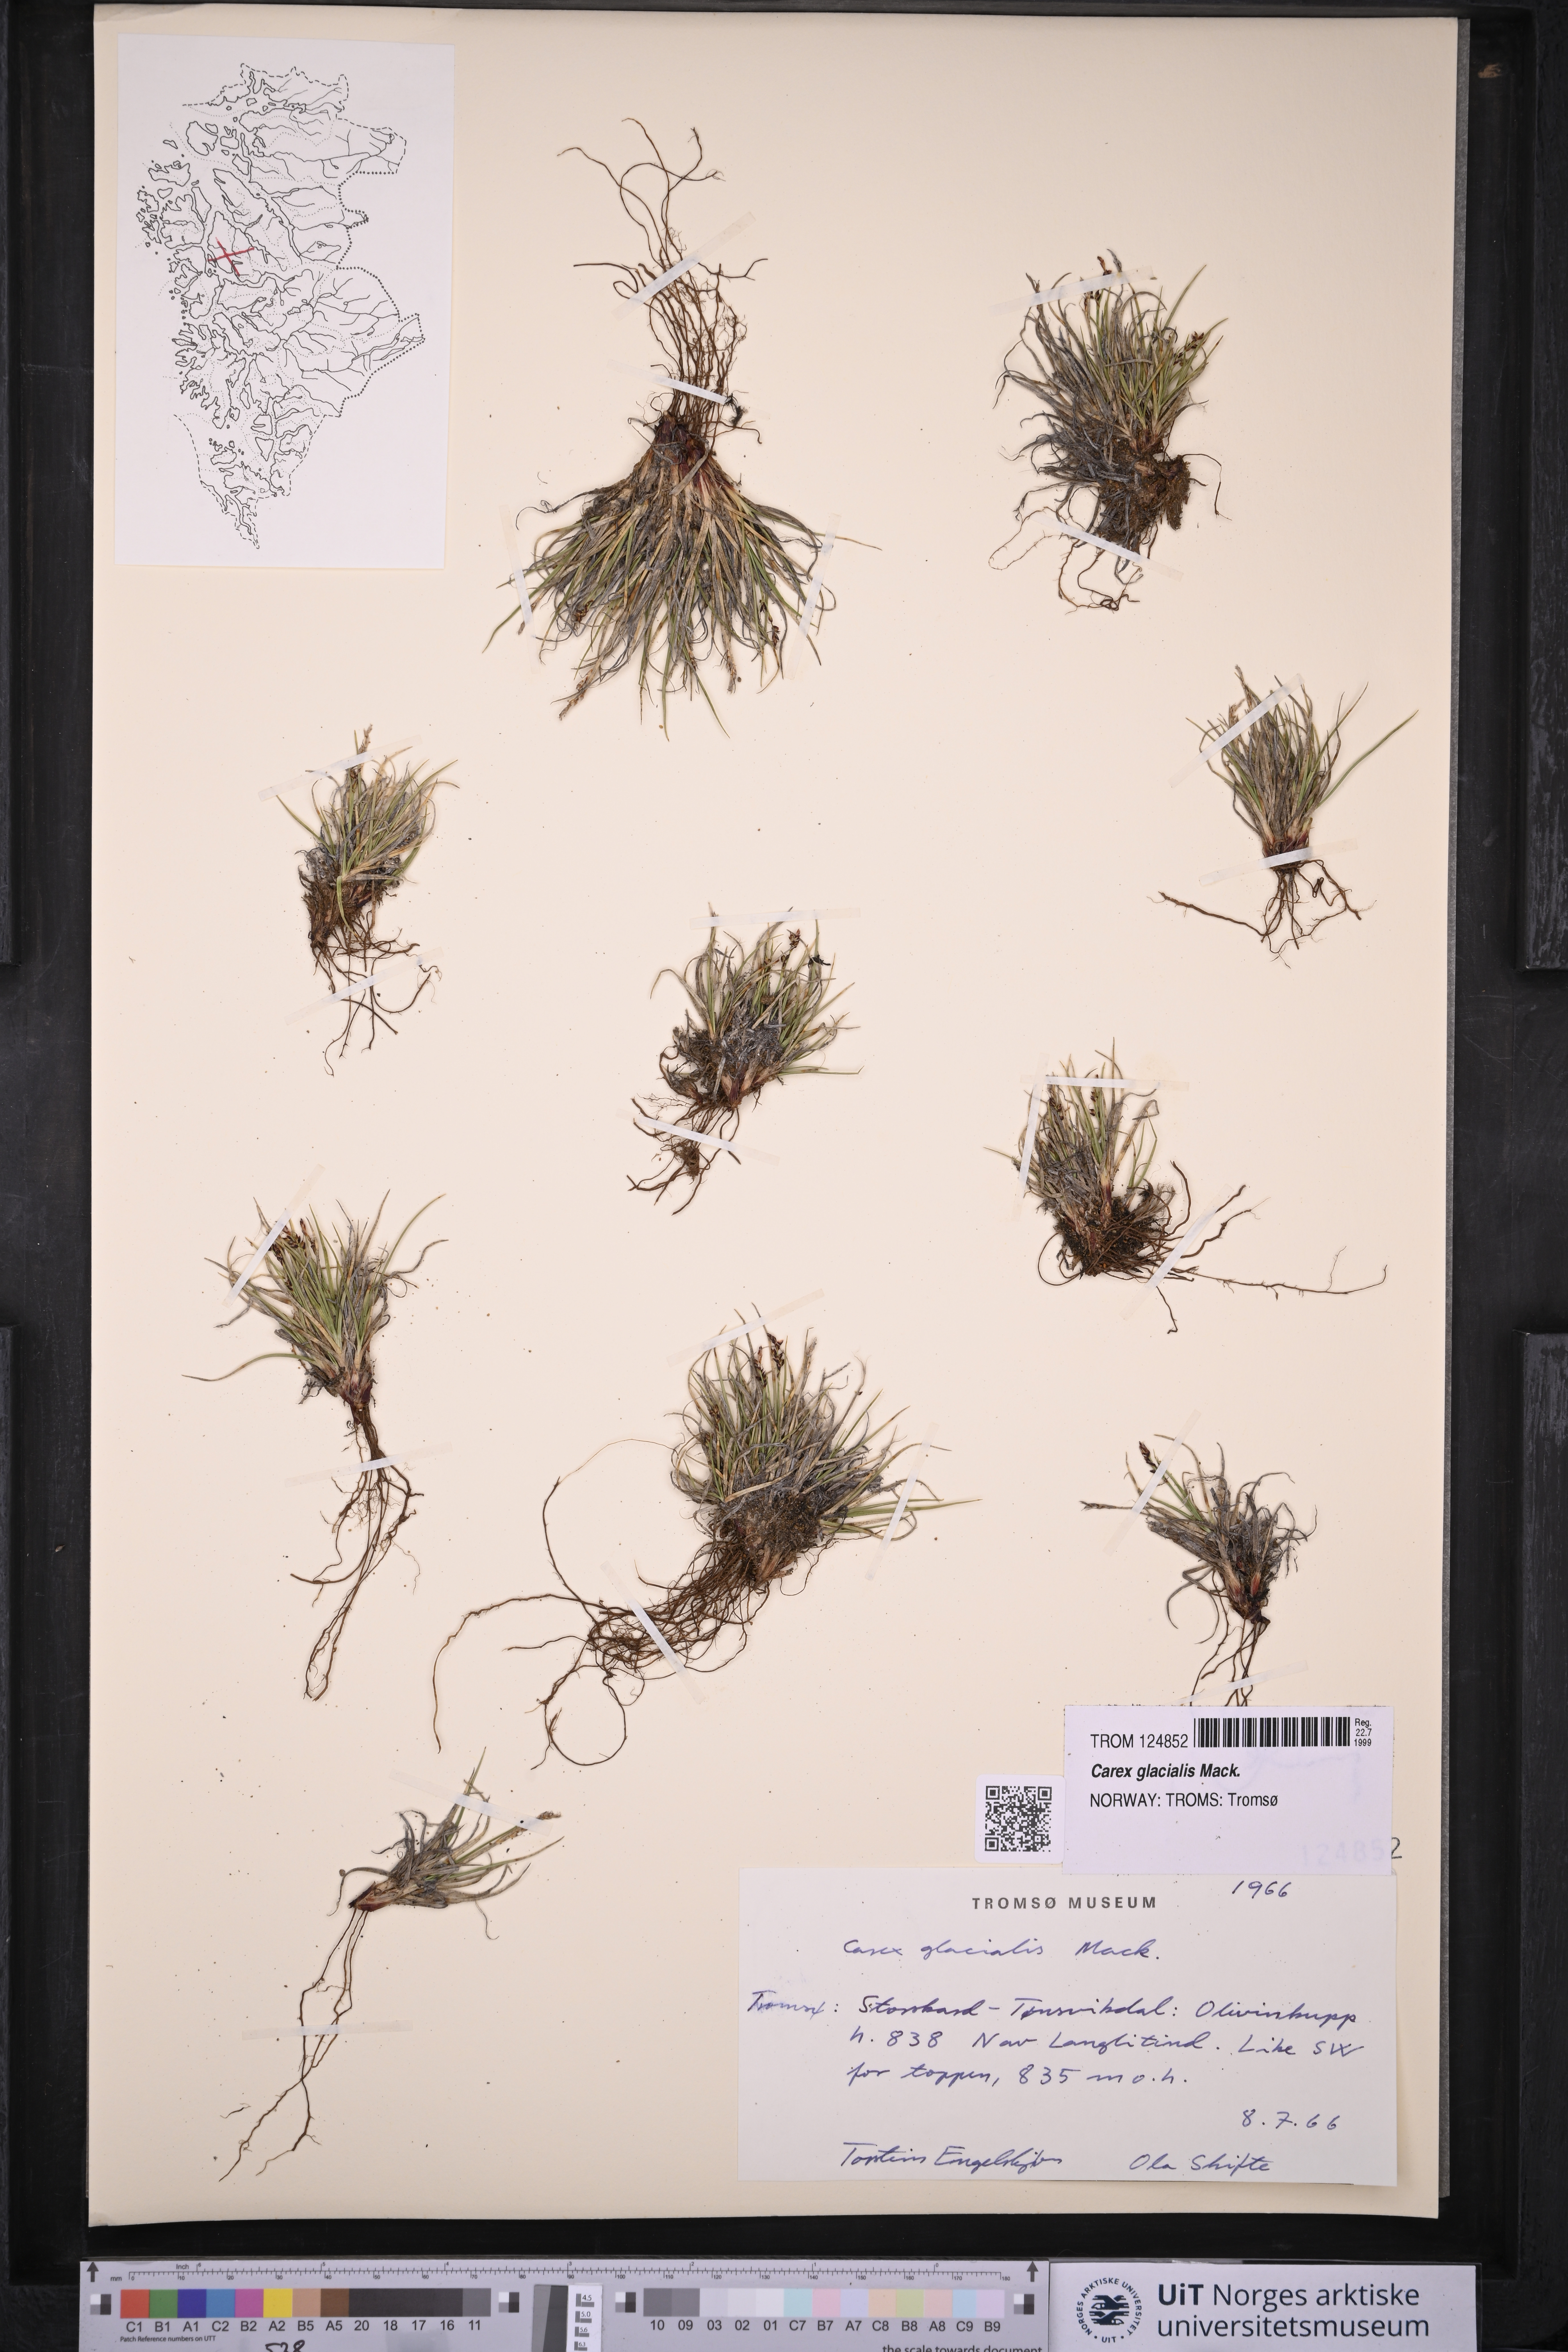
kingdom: Plantae
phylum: Tracheophyta
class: Liliopsida
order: Poales
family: Cyperaceae
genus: Carex
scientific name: Carex glacialis
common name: Newfoundland sedge
